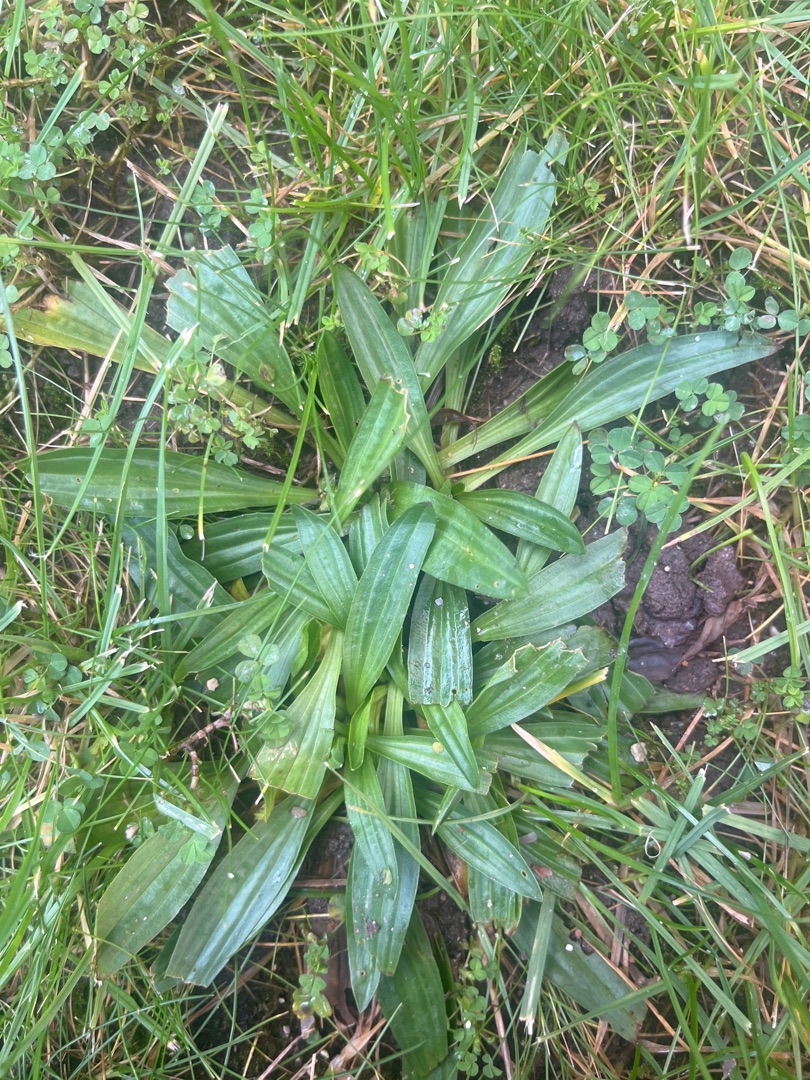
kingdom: Plantae
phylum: Tracheophyta
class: Magnoliopsida
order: Lamiales
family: Plantaginaceae
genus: Plantago
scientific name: Plantago lanceolata
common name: Lancet-vejbred
